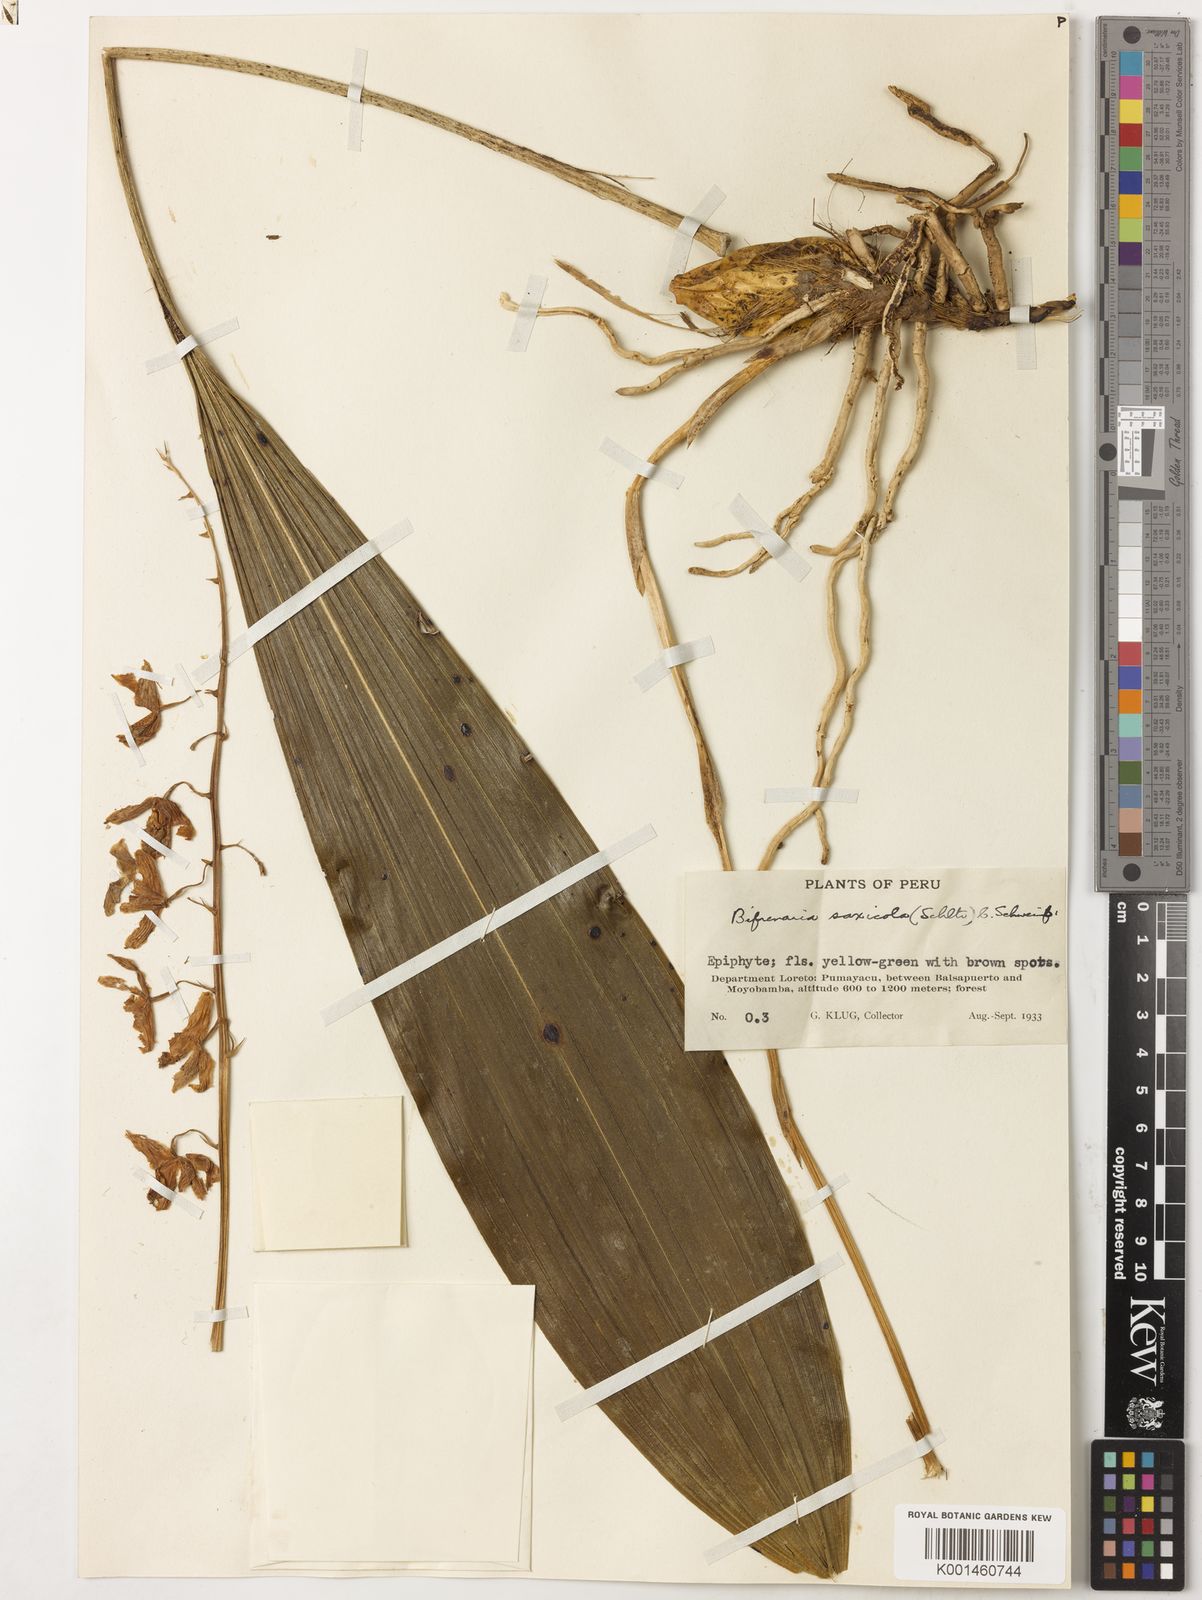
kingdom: Plantae
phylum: Tracheophyta
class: Liliopsida
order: Asparagales
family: Orchidaceae
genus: Rudolfiella
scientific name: Rudolfiella floribunda
